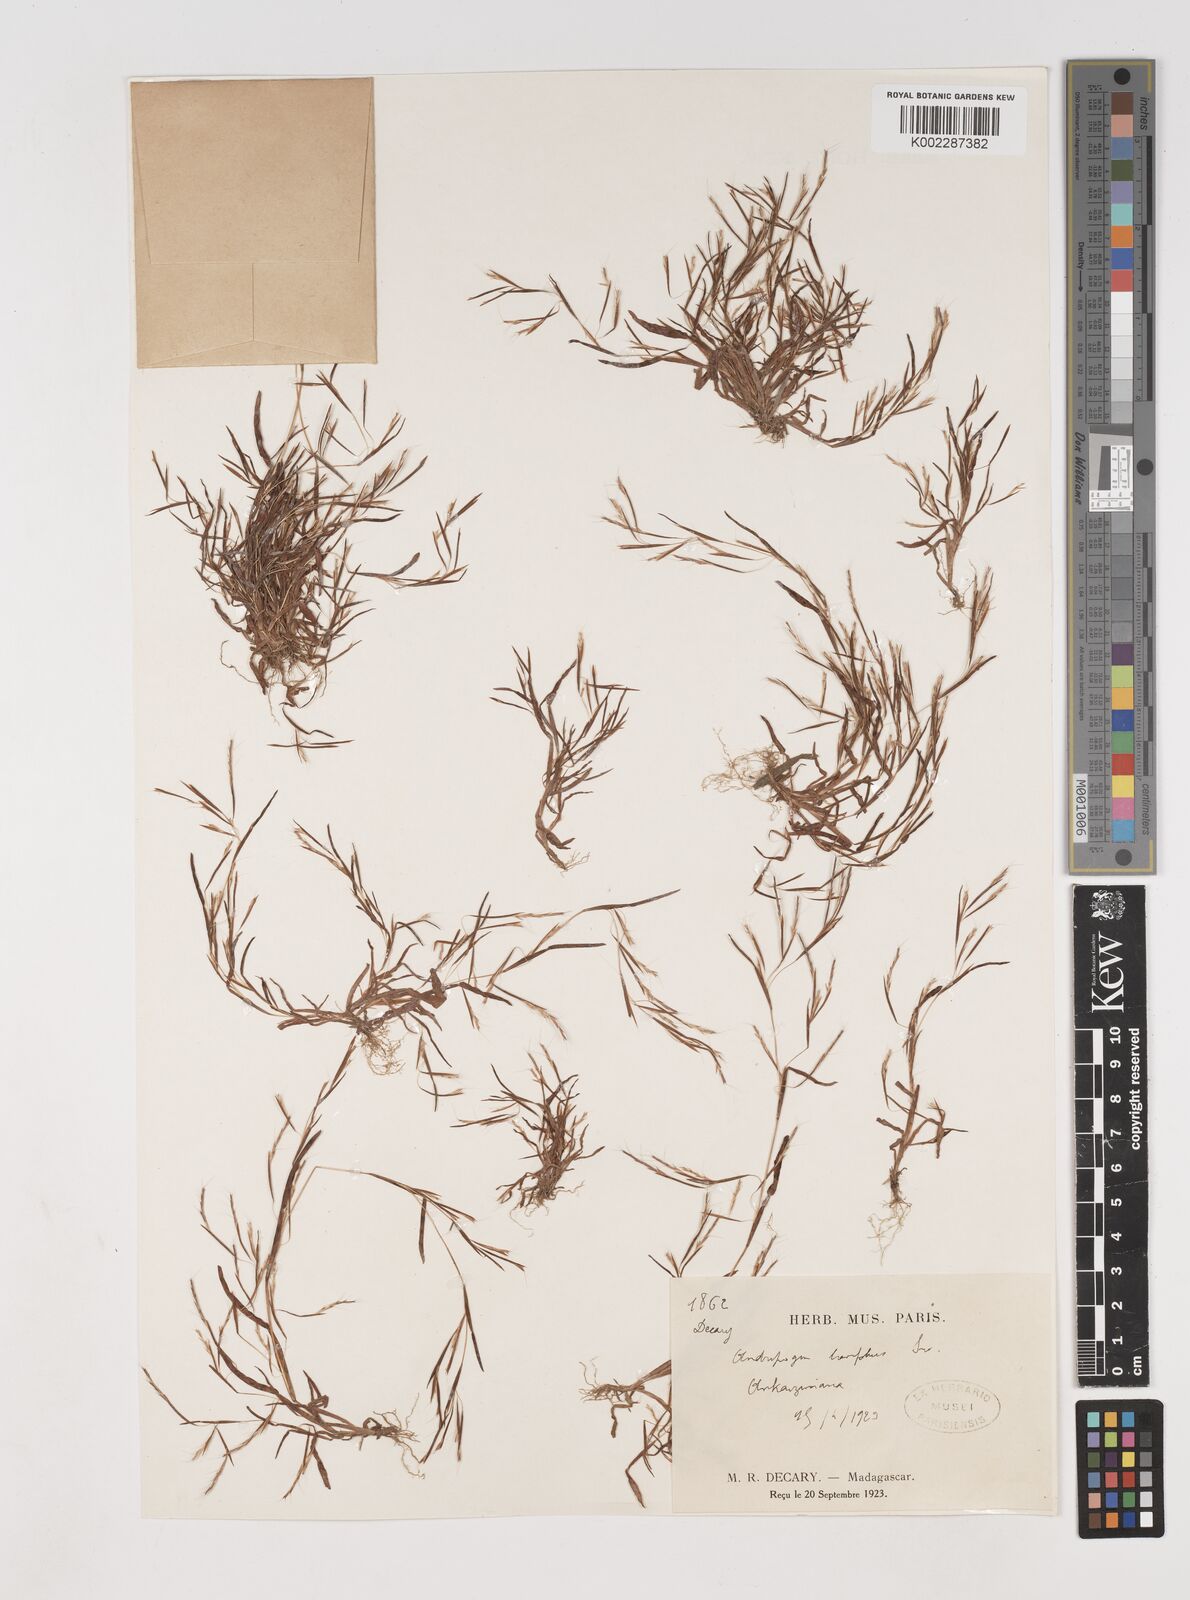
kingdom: Plantae
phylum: Tracheophyta
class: Liliopsida
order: Poales
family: Poaceae
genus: Schizachyrium
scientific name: Schizachyrium brevifolium
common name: Serillo dulce
